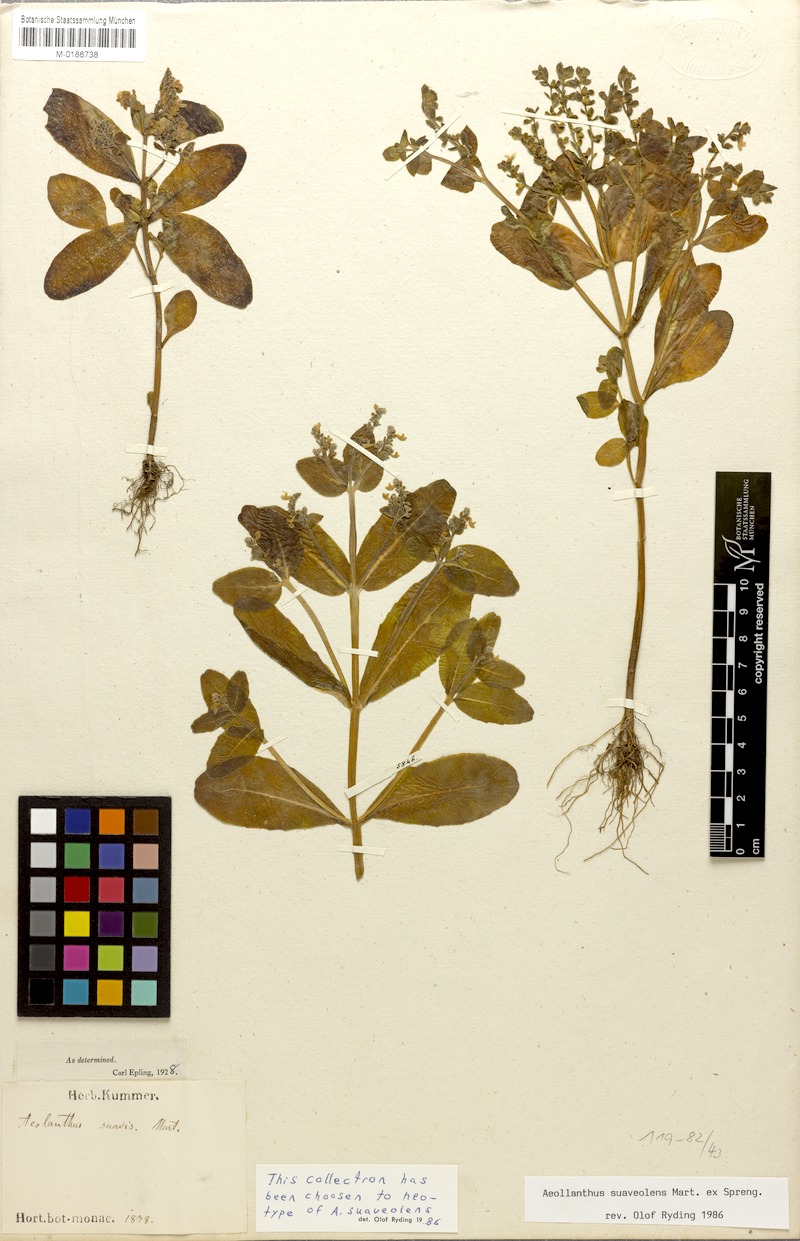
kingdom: Plantae
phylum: Tracheophyta
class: Magnoliopsida
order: Lamiales
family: Lamiaceae
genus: Aeollanthus
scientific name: Aeollanthus suaveolens
